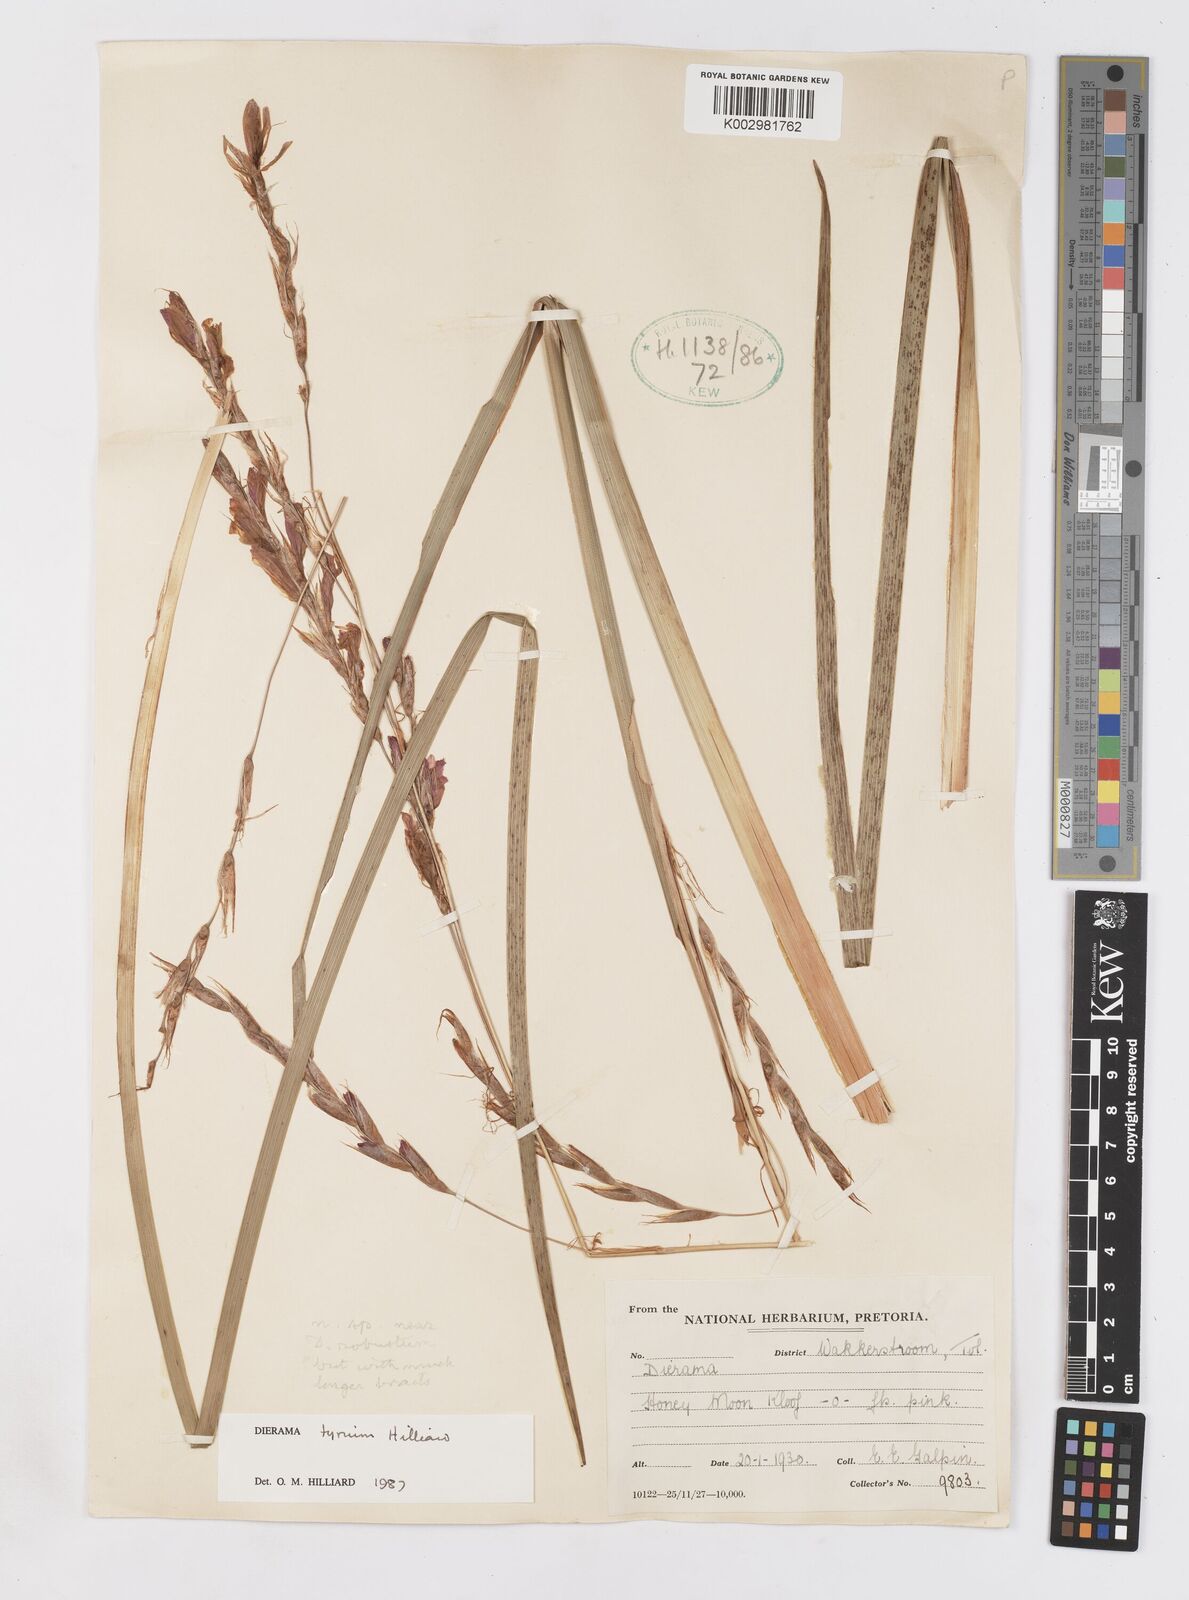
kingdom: Plantae
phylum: Tracheophyta
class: Liliopsida
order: Asparagales
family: Iridaceae
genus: Dierama
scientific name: Dierama tyrium
